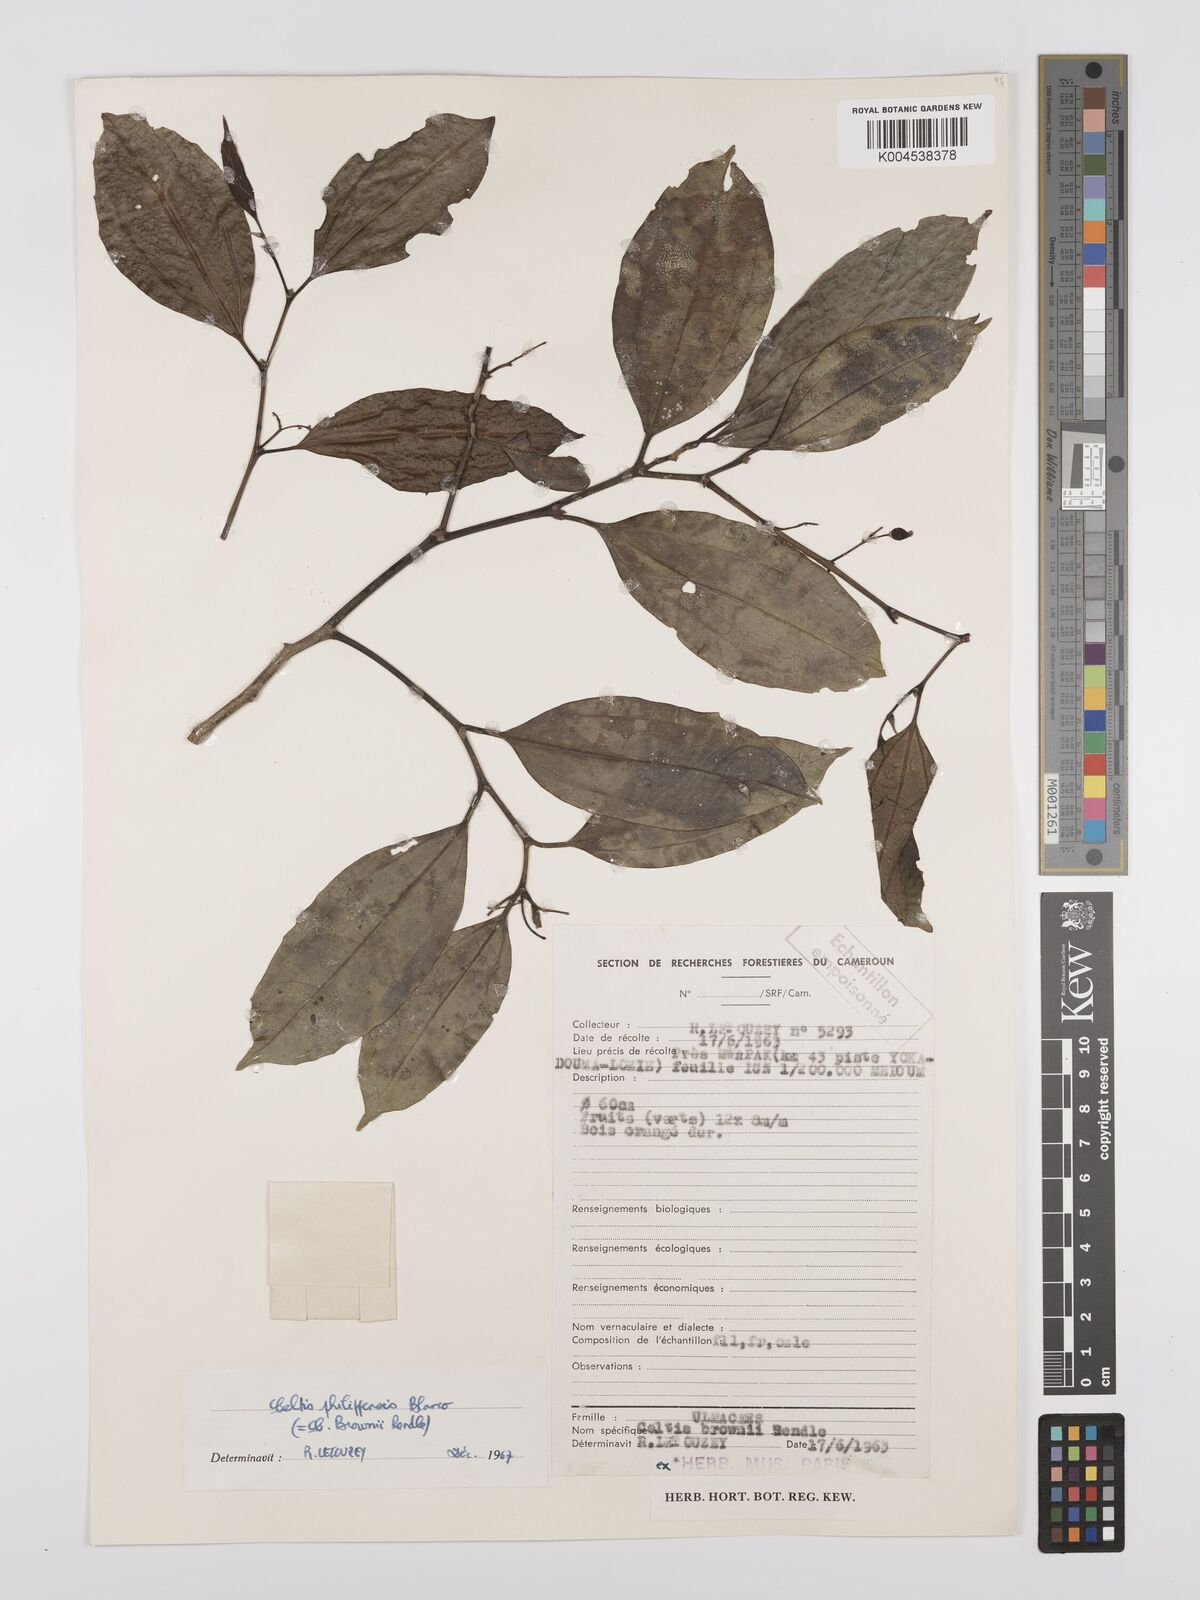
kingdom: Plantae
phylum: Tracheophyta
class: Magnoliopsida
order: Rosales
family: Cannabaceae
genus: Celtis
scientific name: Celtis philippensis
